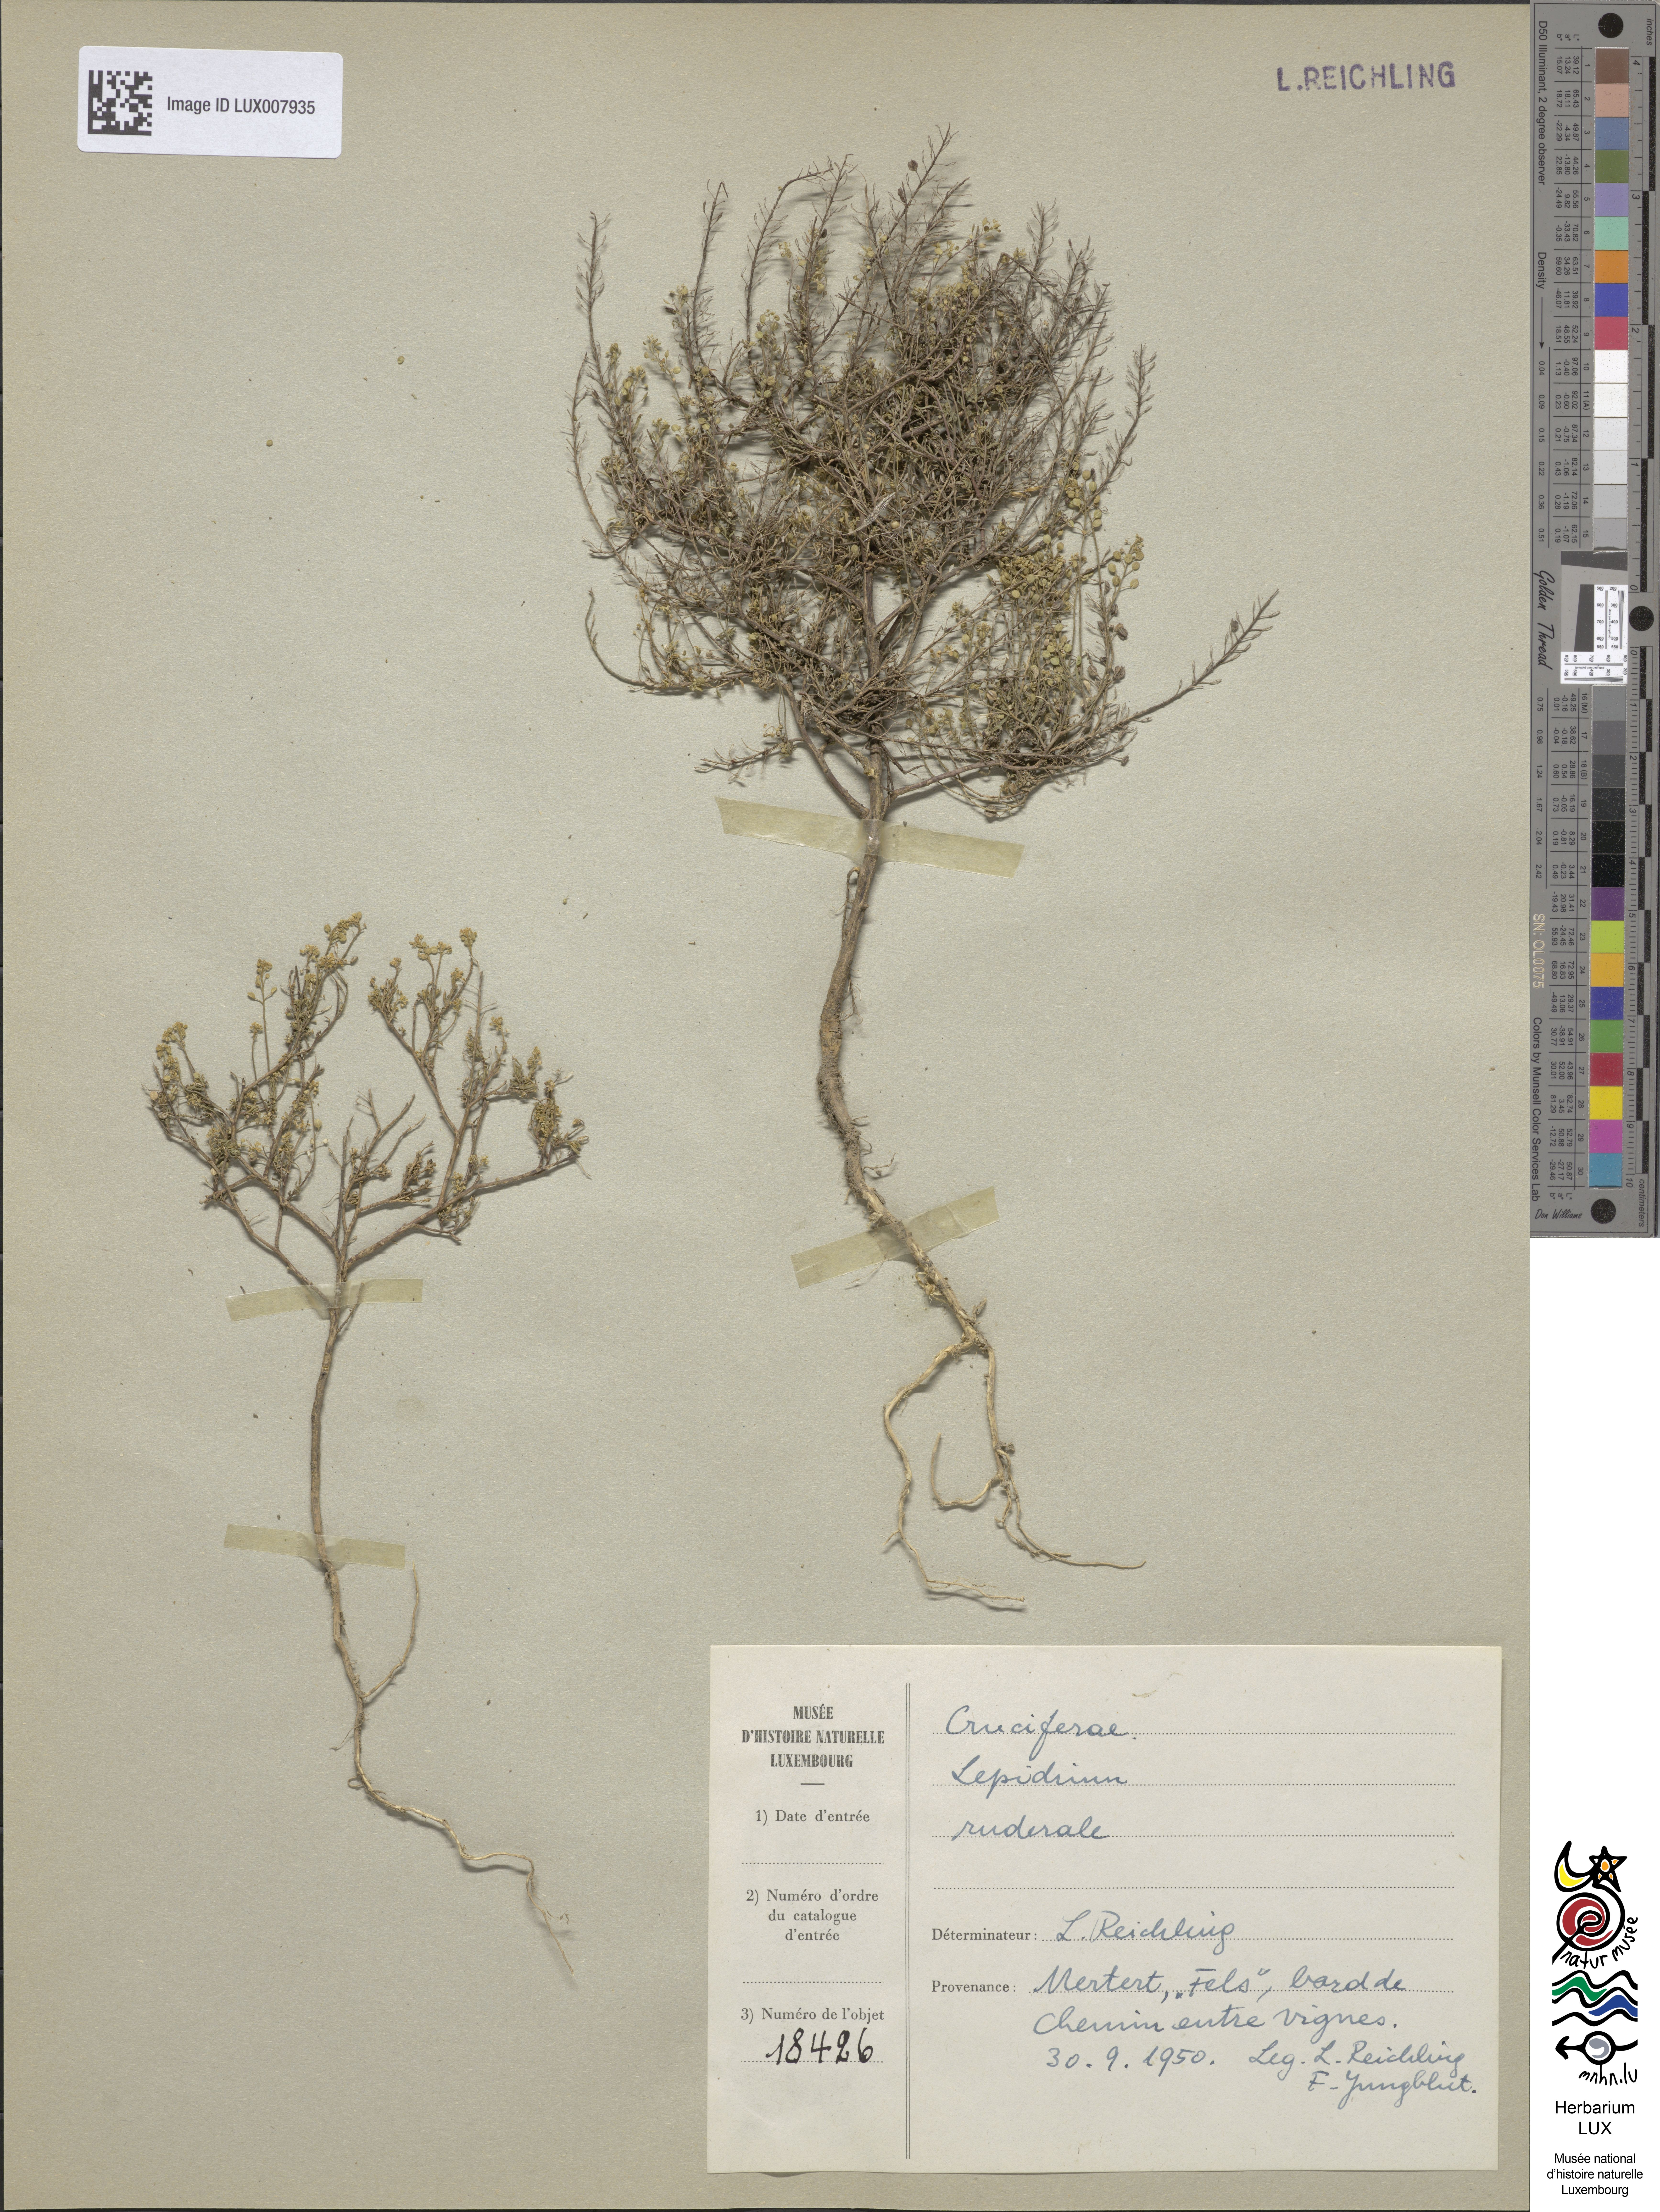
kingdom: Plantae
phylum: Tracheophyta
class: Magnoliopsida
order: Brassicales
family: Brassicaceae
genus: Lepidium
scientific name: Lepidium ruderale
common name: Narrow-leaved pepperwort
